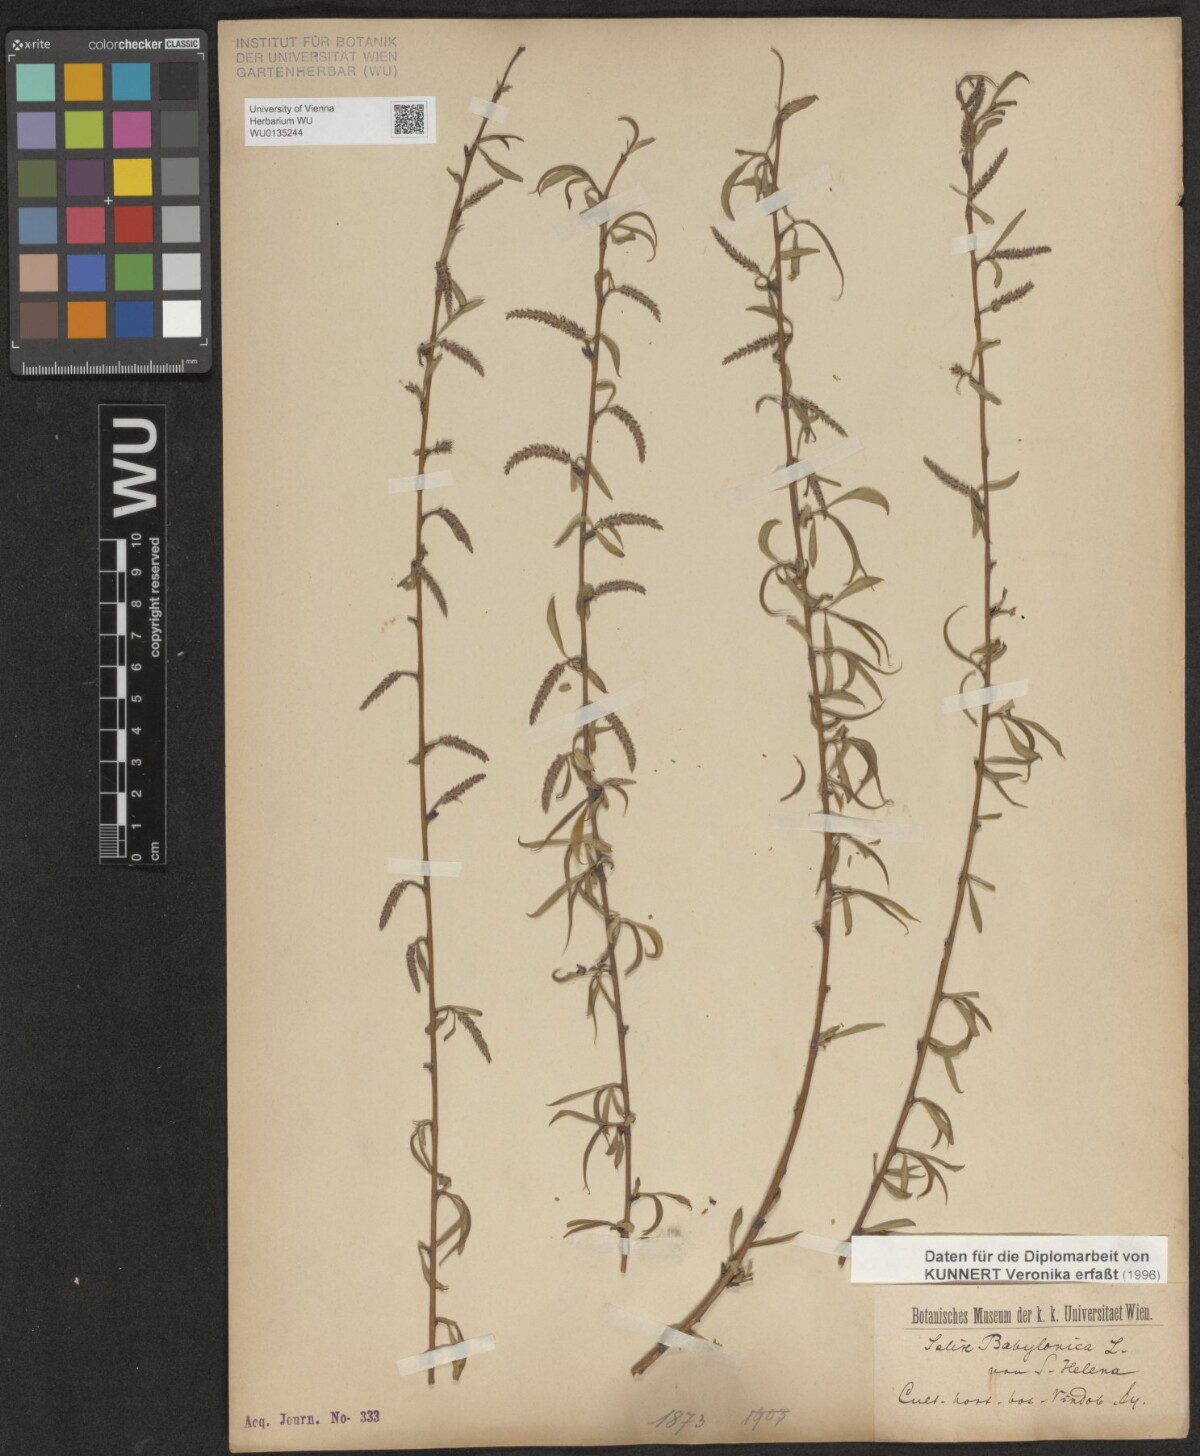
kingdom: Plantae
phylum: Tracheophyta
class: Magnoliopsida
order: Malpighiales
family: Salicaceae
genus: Salix
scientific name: Salix babylonica
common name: Weeping willow
